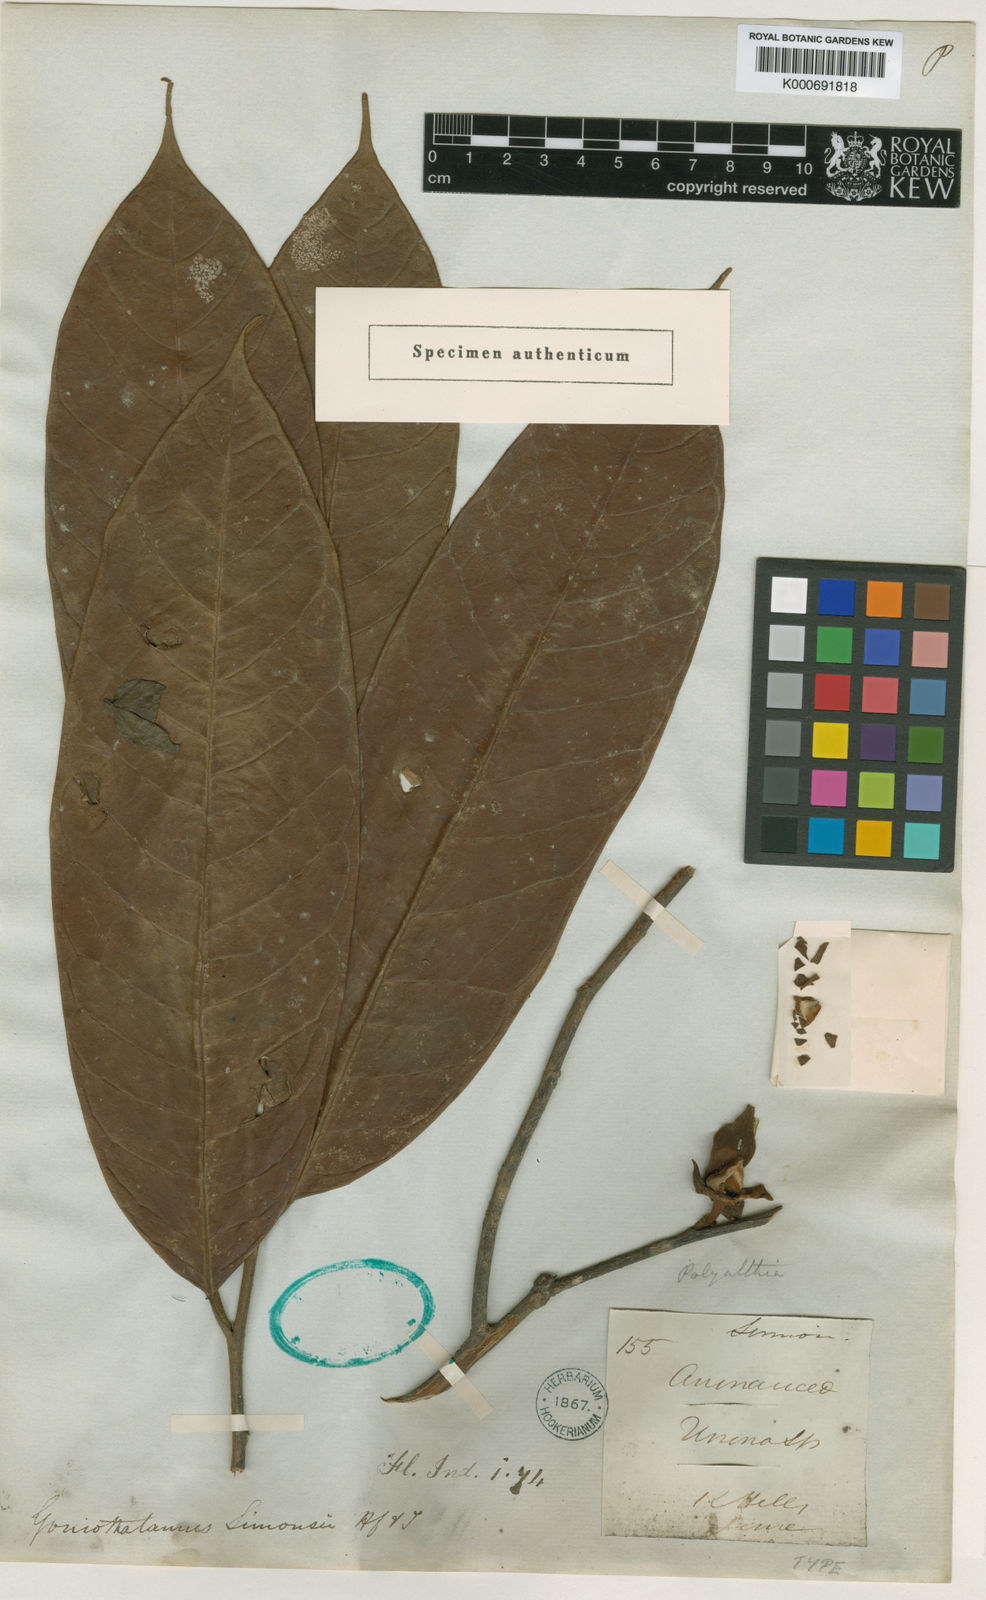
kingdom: Plantae
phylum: Tracheophyta
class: Magnoliopsida
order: Magnoliales
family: Annonaceae
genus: Goniothalamus
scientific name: Goniothalamus simonsii
